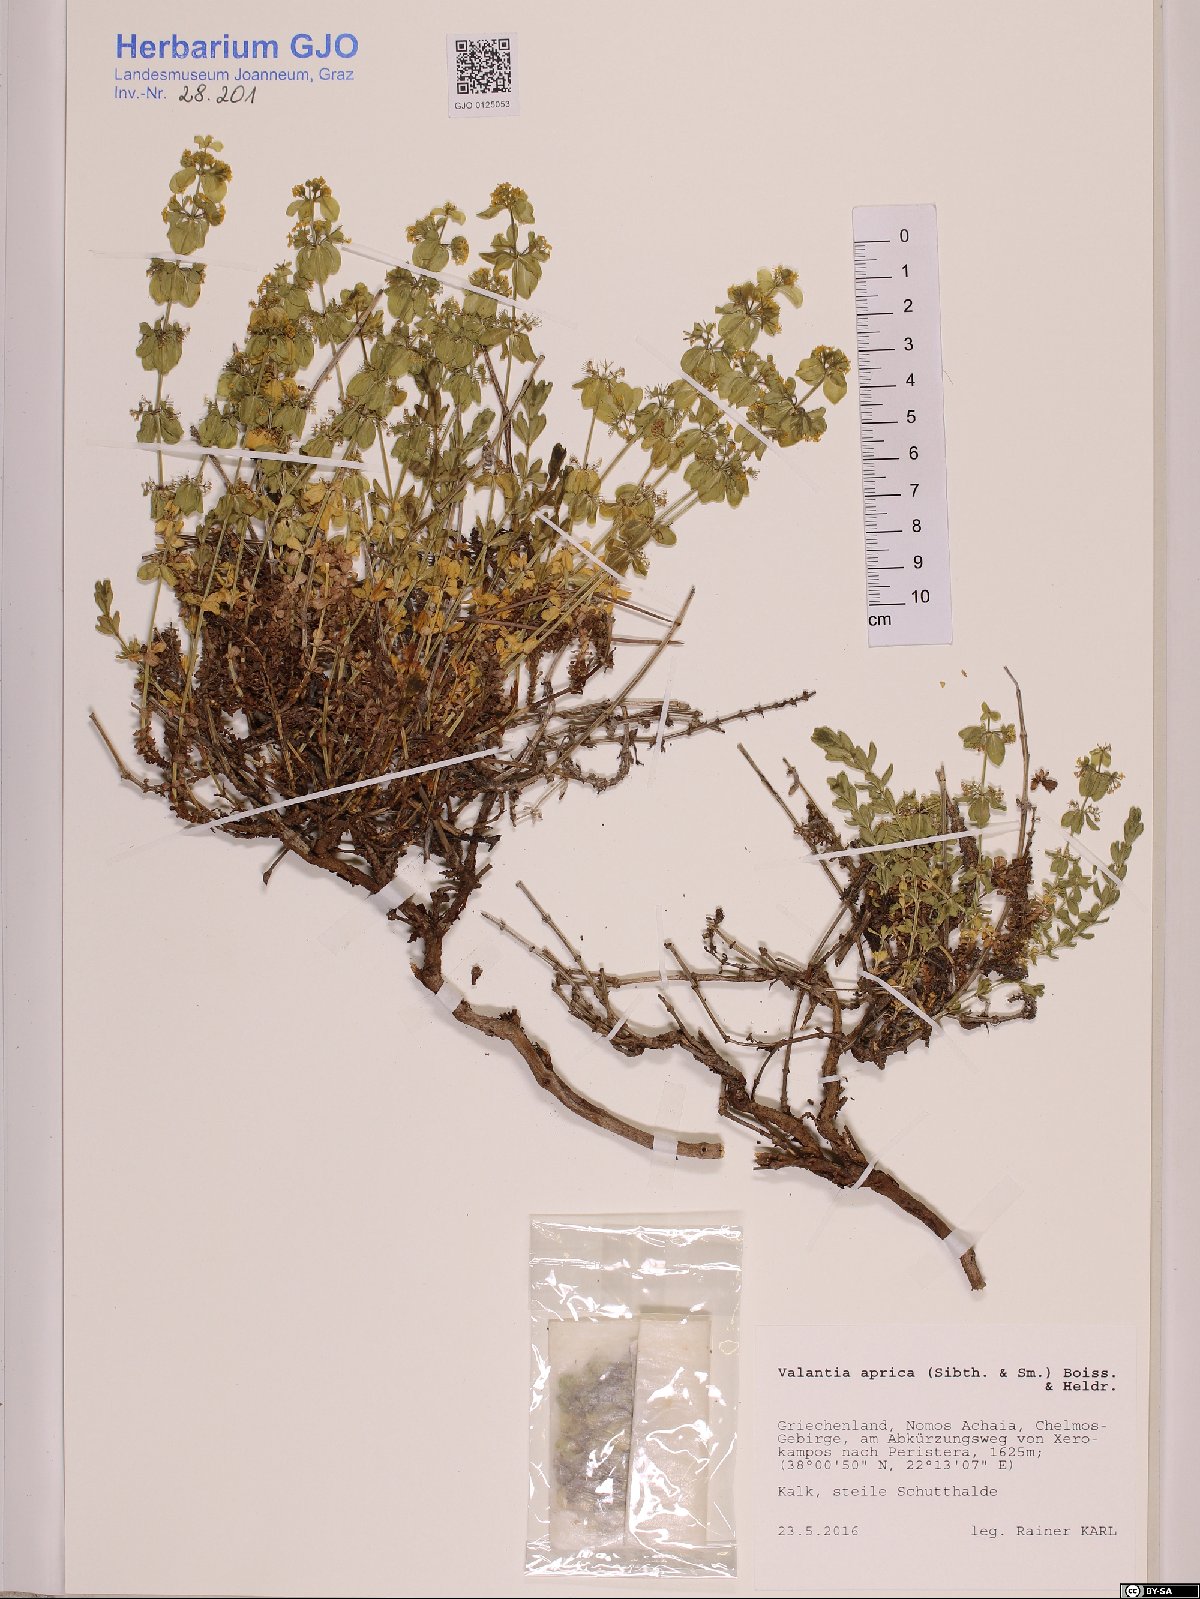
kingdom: Plantae
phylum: Tracheophyta
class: Magnoliopsida
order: Gentianales
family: Rubiaceae
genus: Valantia
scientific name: Valantia aprica
